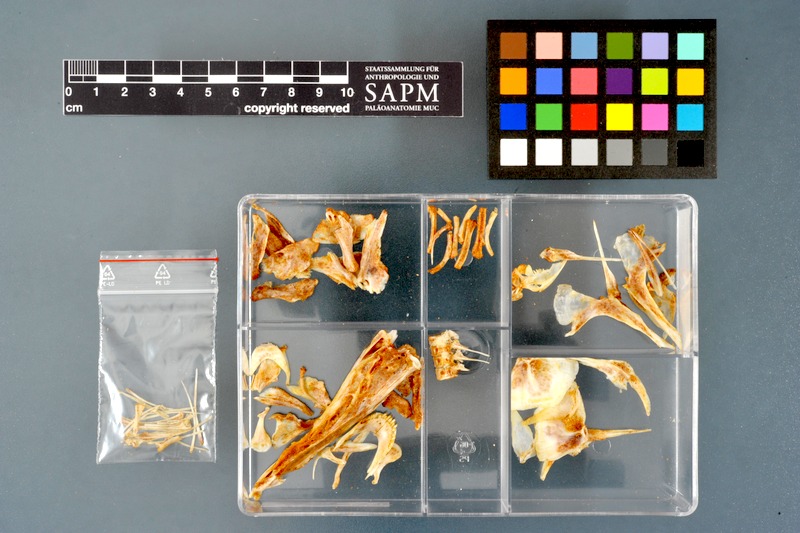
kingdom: Animalia
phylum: Chordata
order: Osteoglossiformes
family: Mormyridae
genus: Mormyrops
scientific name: Mormyrops anguilloides
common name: Cornish jack
